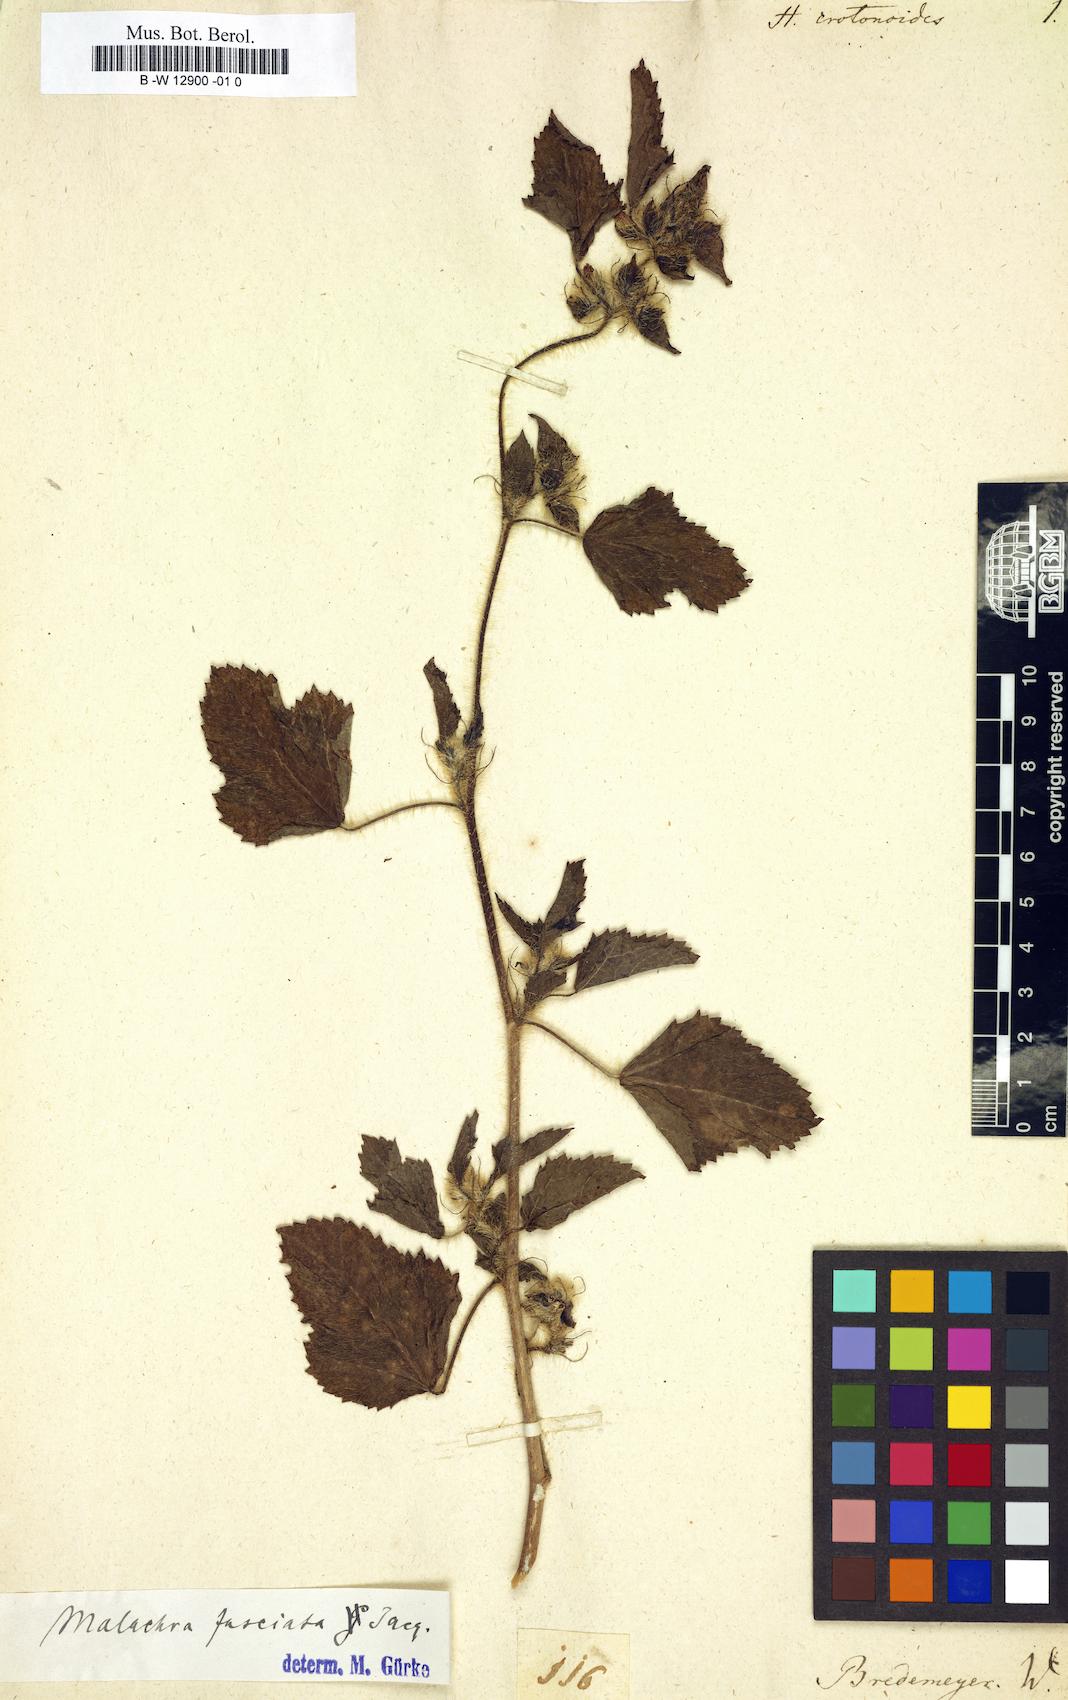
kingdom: Plantae
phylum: Tracheophyta
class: Magnoliopsida
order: Malvales
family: Malvaceae
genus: Hibiscus
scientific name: Hibiscus
